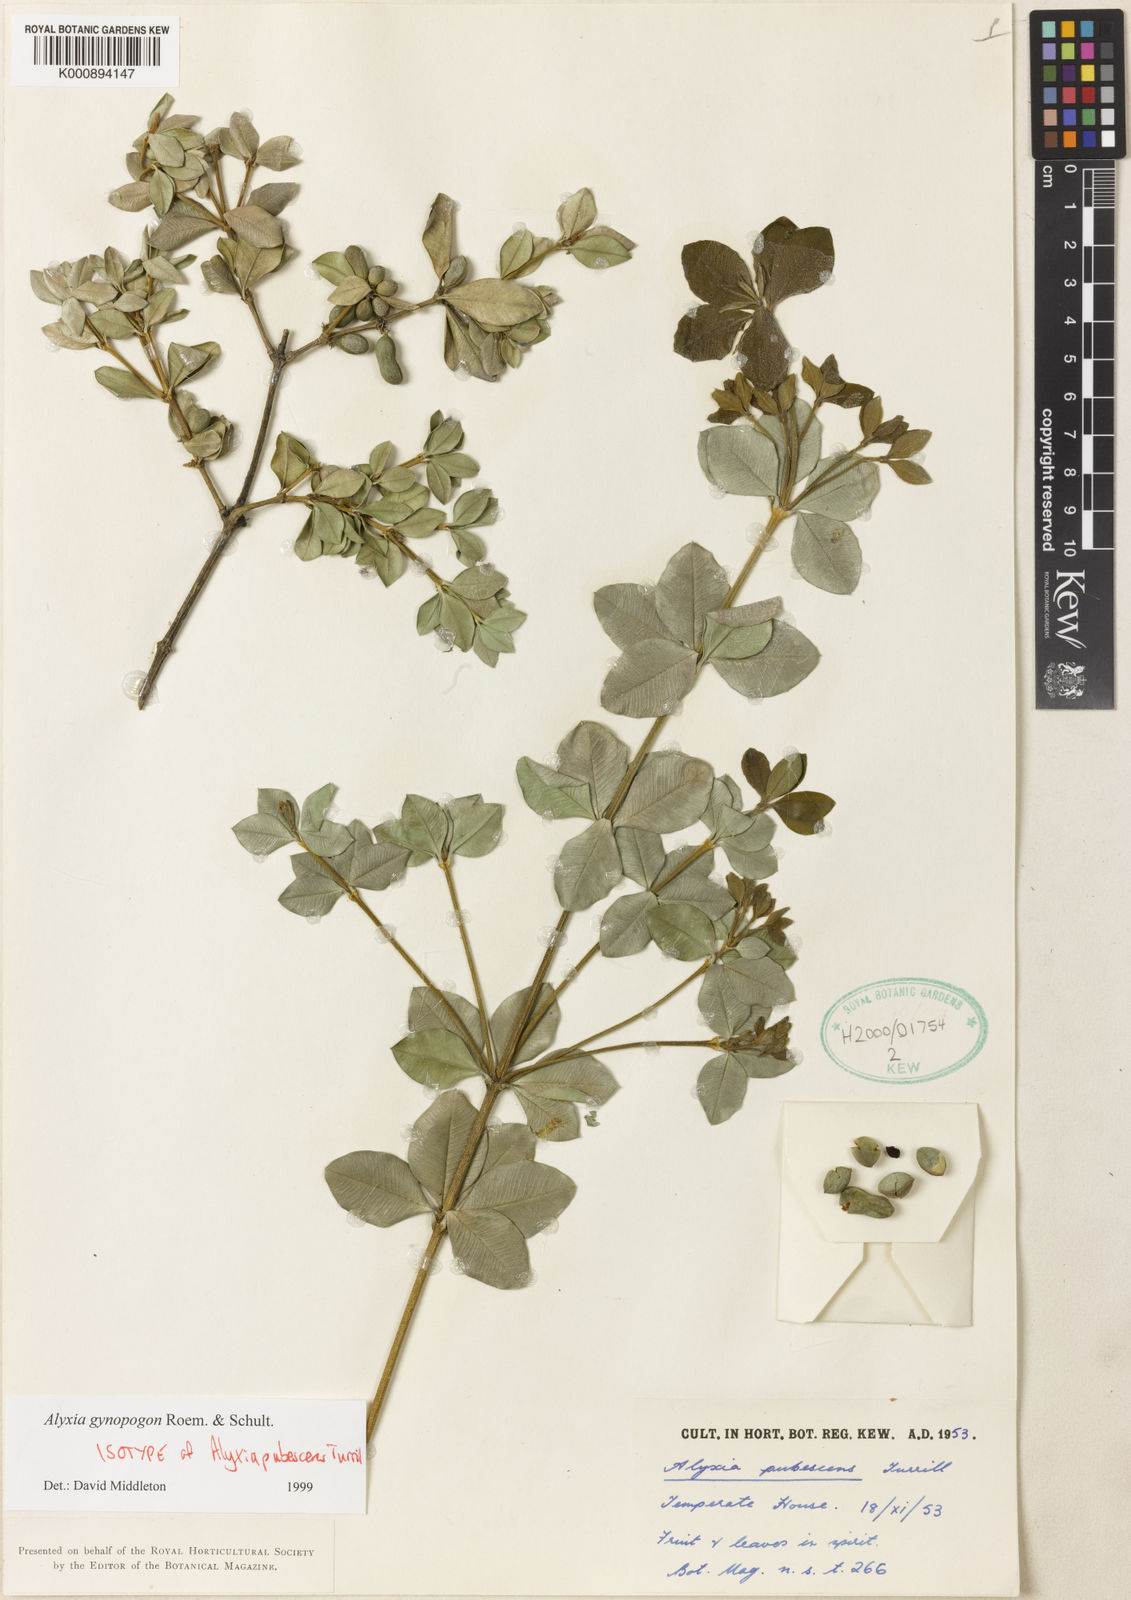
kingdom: Plantae
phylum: Tracheophyta
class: Magnoliopsida
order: Gentianales
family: Apocynaceae
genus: Alyxia
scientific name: Alyxia gynopogon
